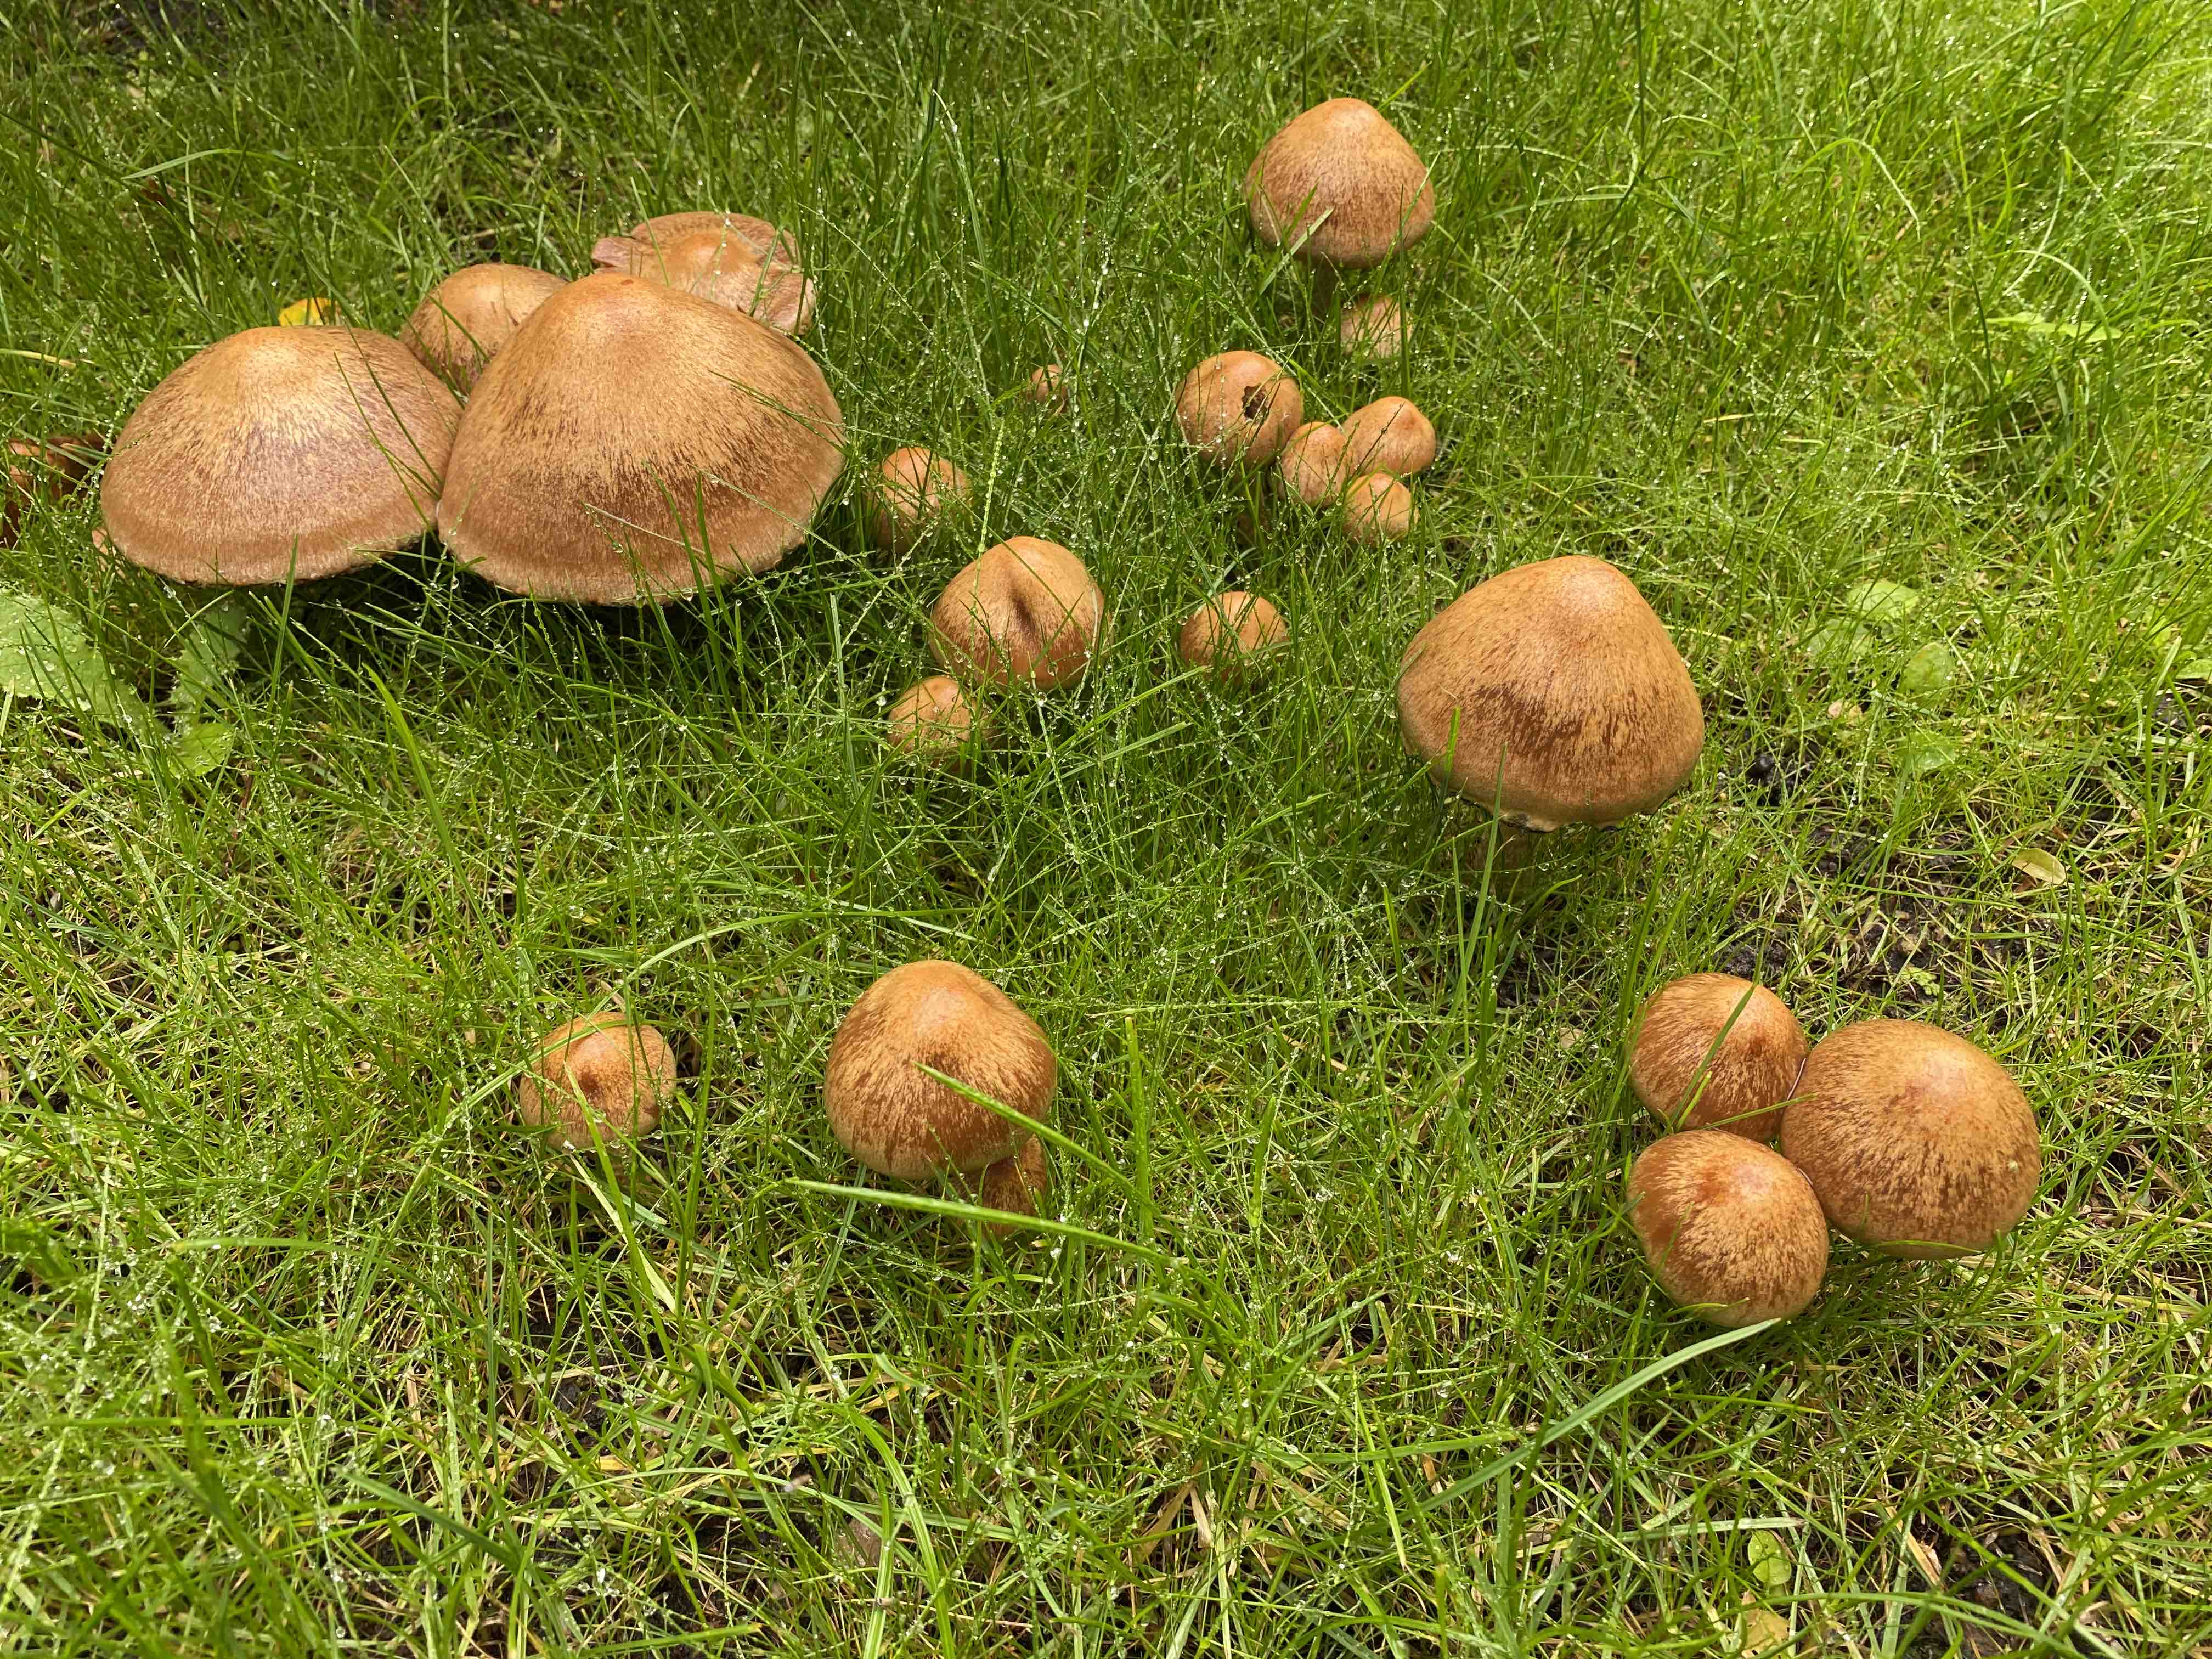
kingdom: Fungi
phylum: Basidiomycota
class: Agaricomycetes
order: Agaricales
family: Psathyrellaceae
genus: Lacrymaria
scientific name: Lacrymaria lacrymabunda
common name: grædende mørkhat
